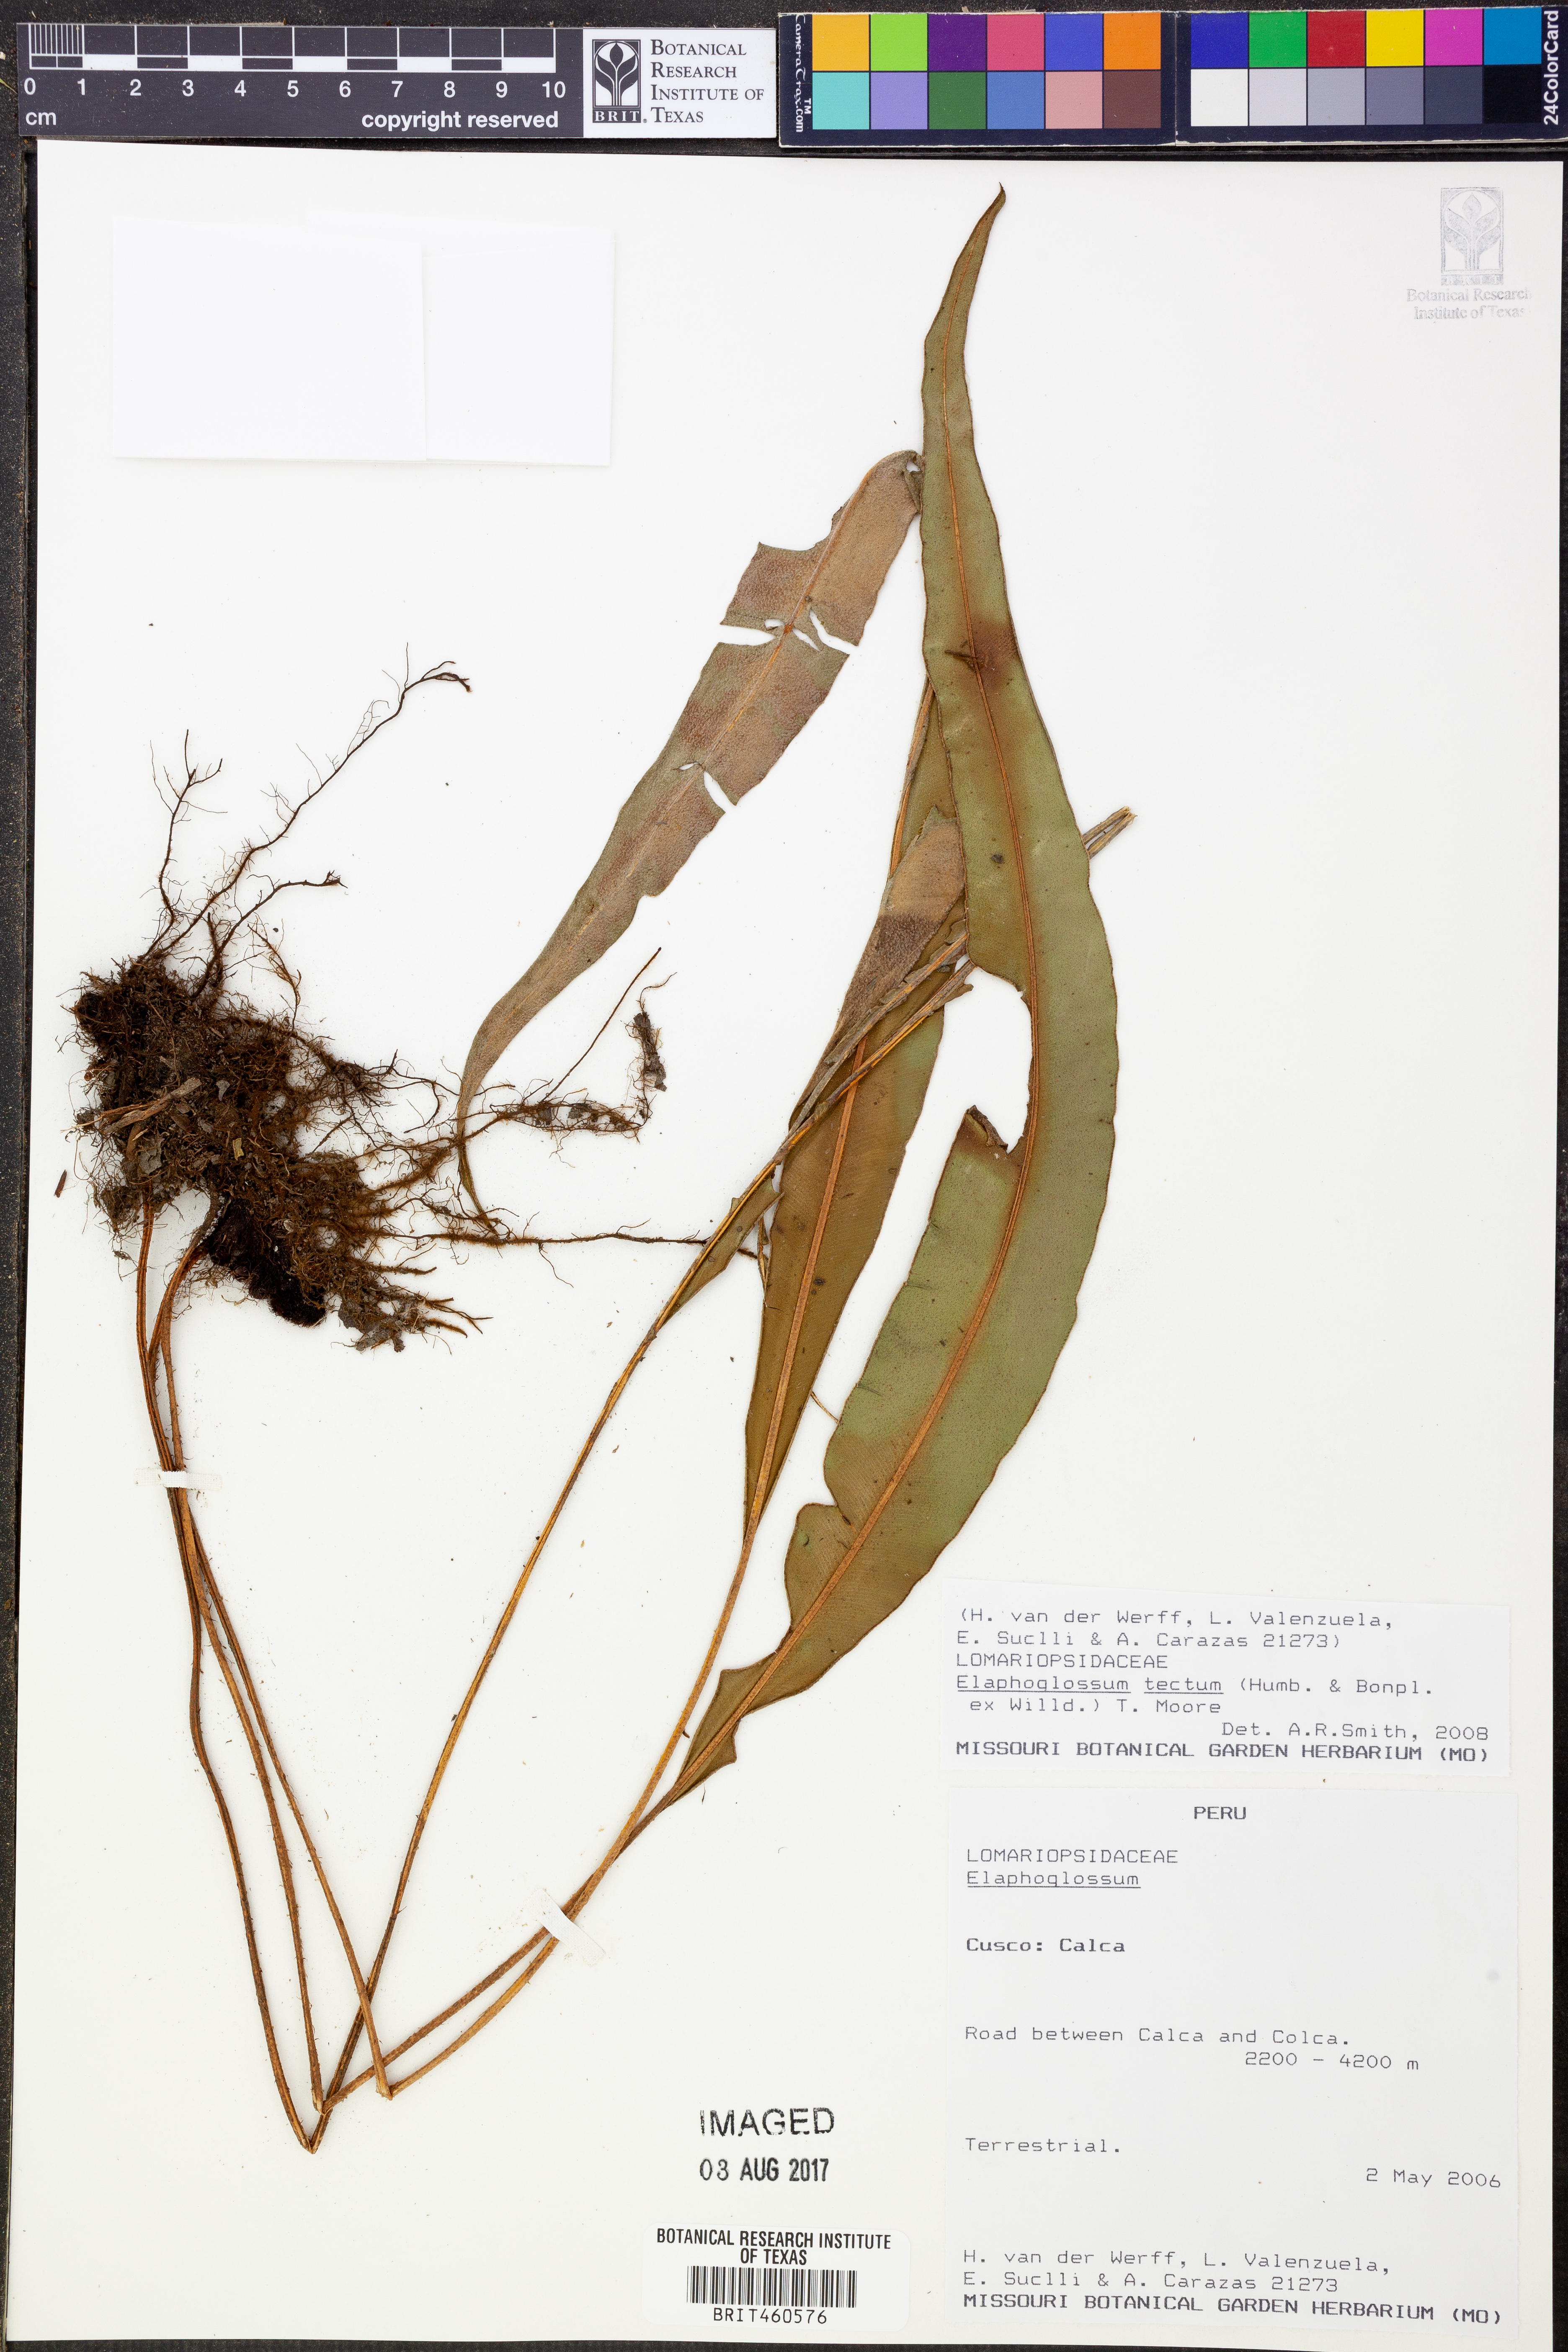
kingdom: Plantae
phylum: Tracheophyta
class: Polypodiopsida
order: Polypodiales
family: Dryopteridaceae
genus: Elaphoglossum
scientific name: Elaphoglossum tectum
